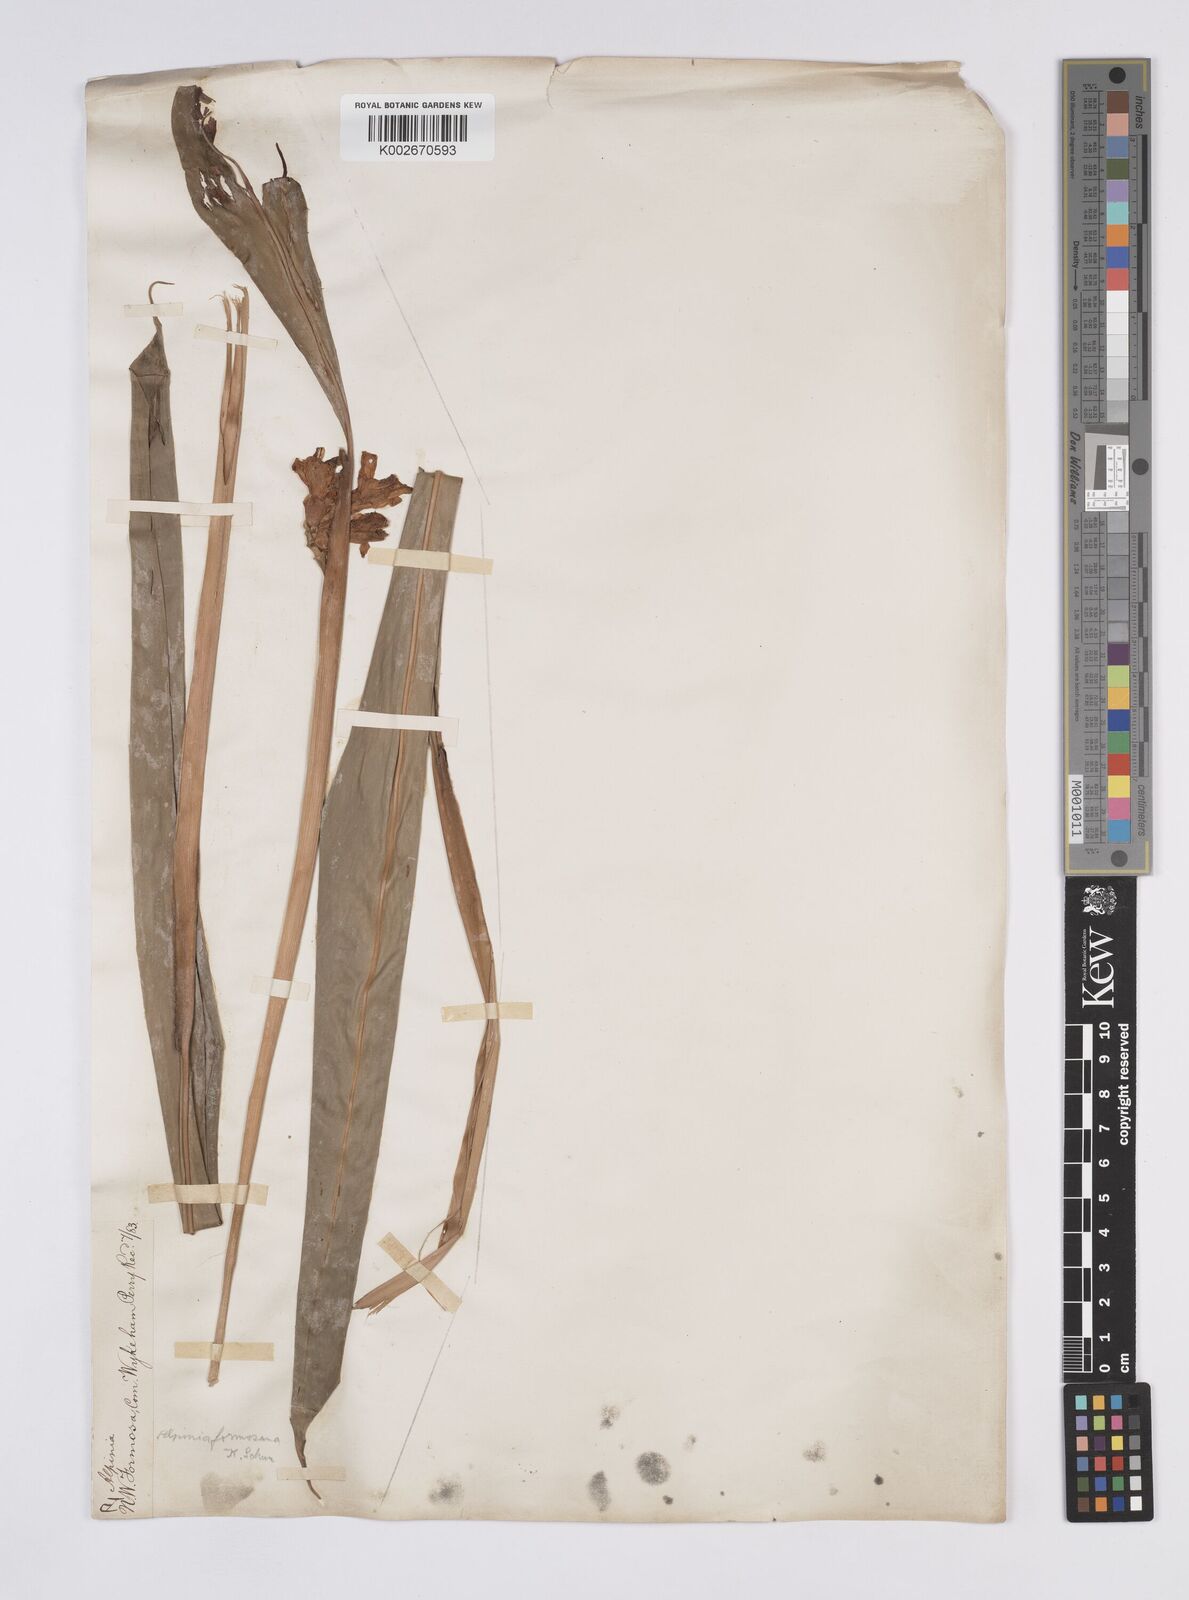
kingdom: Plantae
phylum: Tracheophyta
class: Liliopsida
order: Zingiberales
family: Zingiberaceae
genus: Alpinia
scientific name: Alpinia formosana
